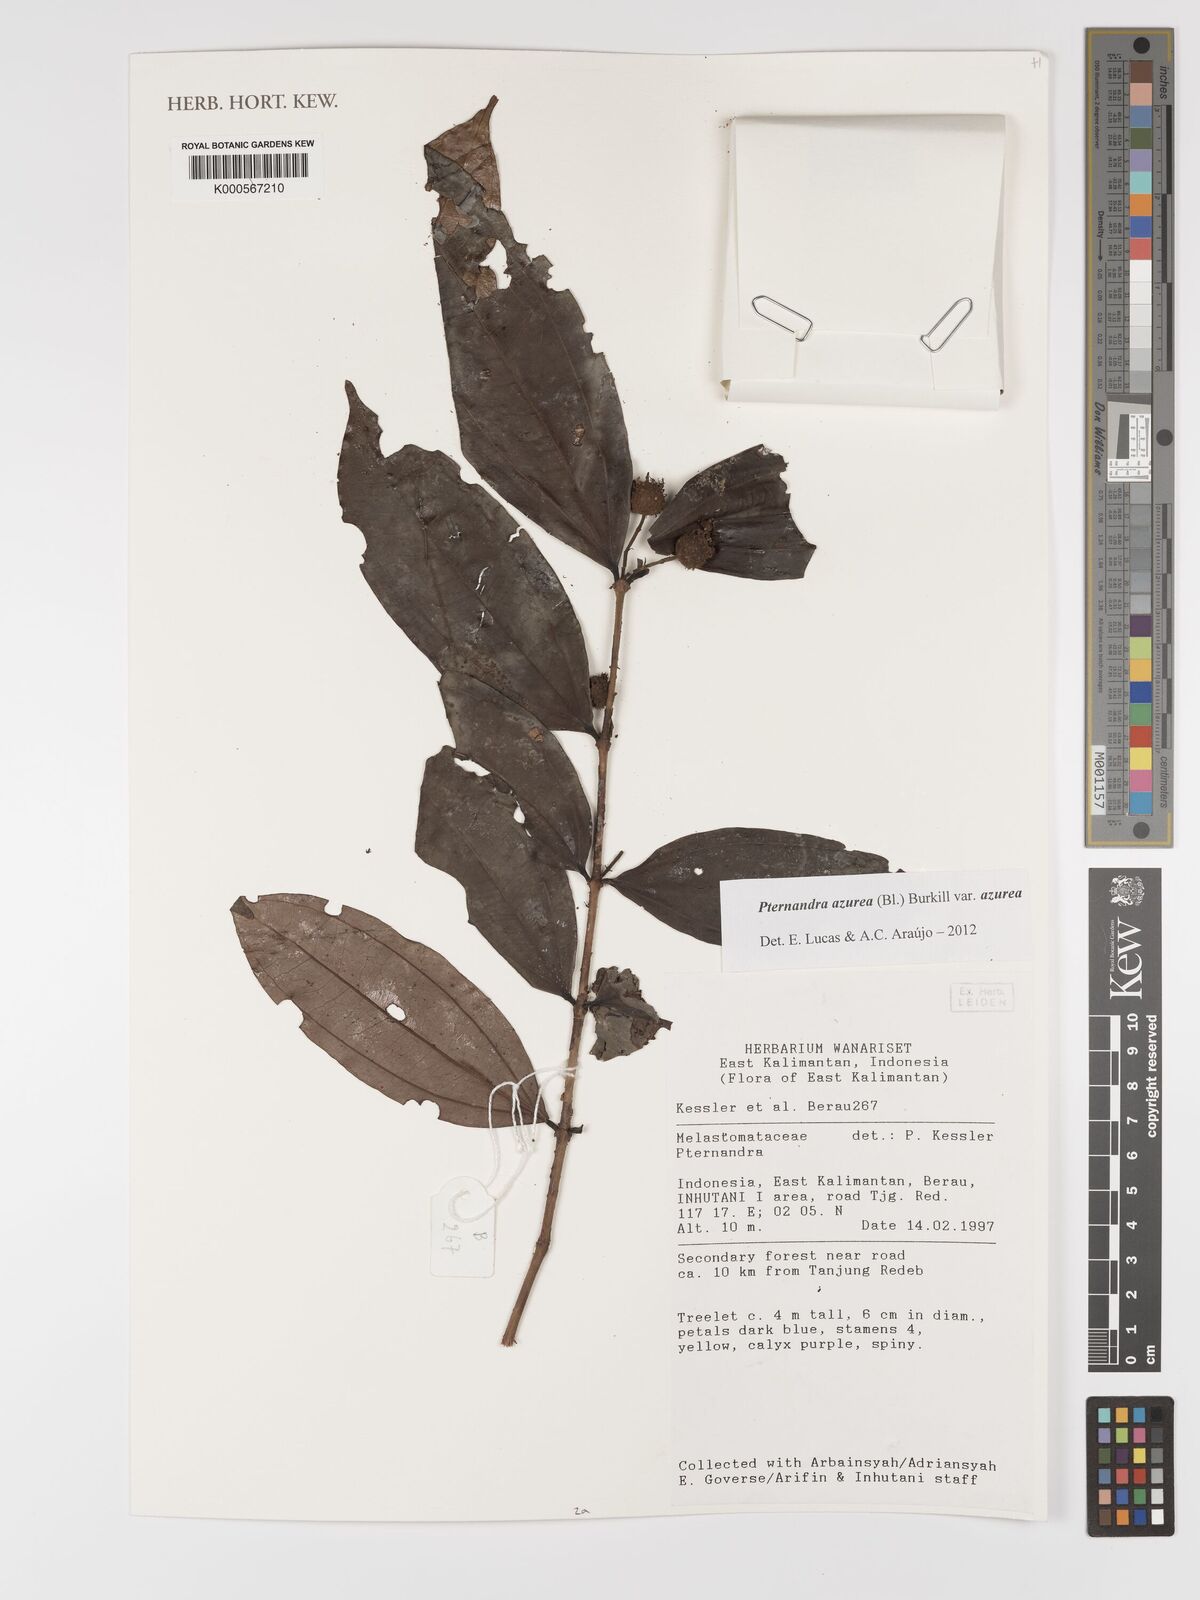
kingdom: Plantae
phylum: Tracheophyta
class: Magnoliopsida
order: Myrtales
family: Melastomataceae
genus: Pternandra
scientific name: Pternandra azurea
